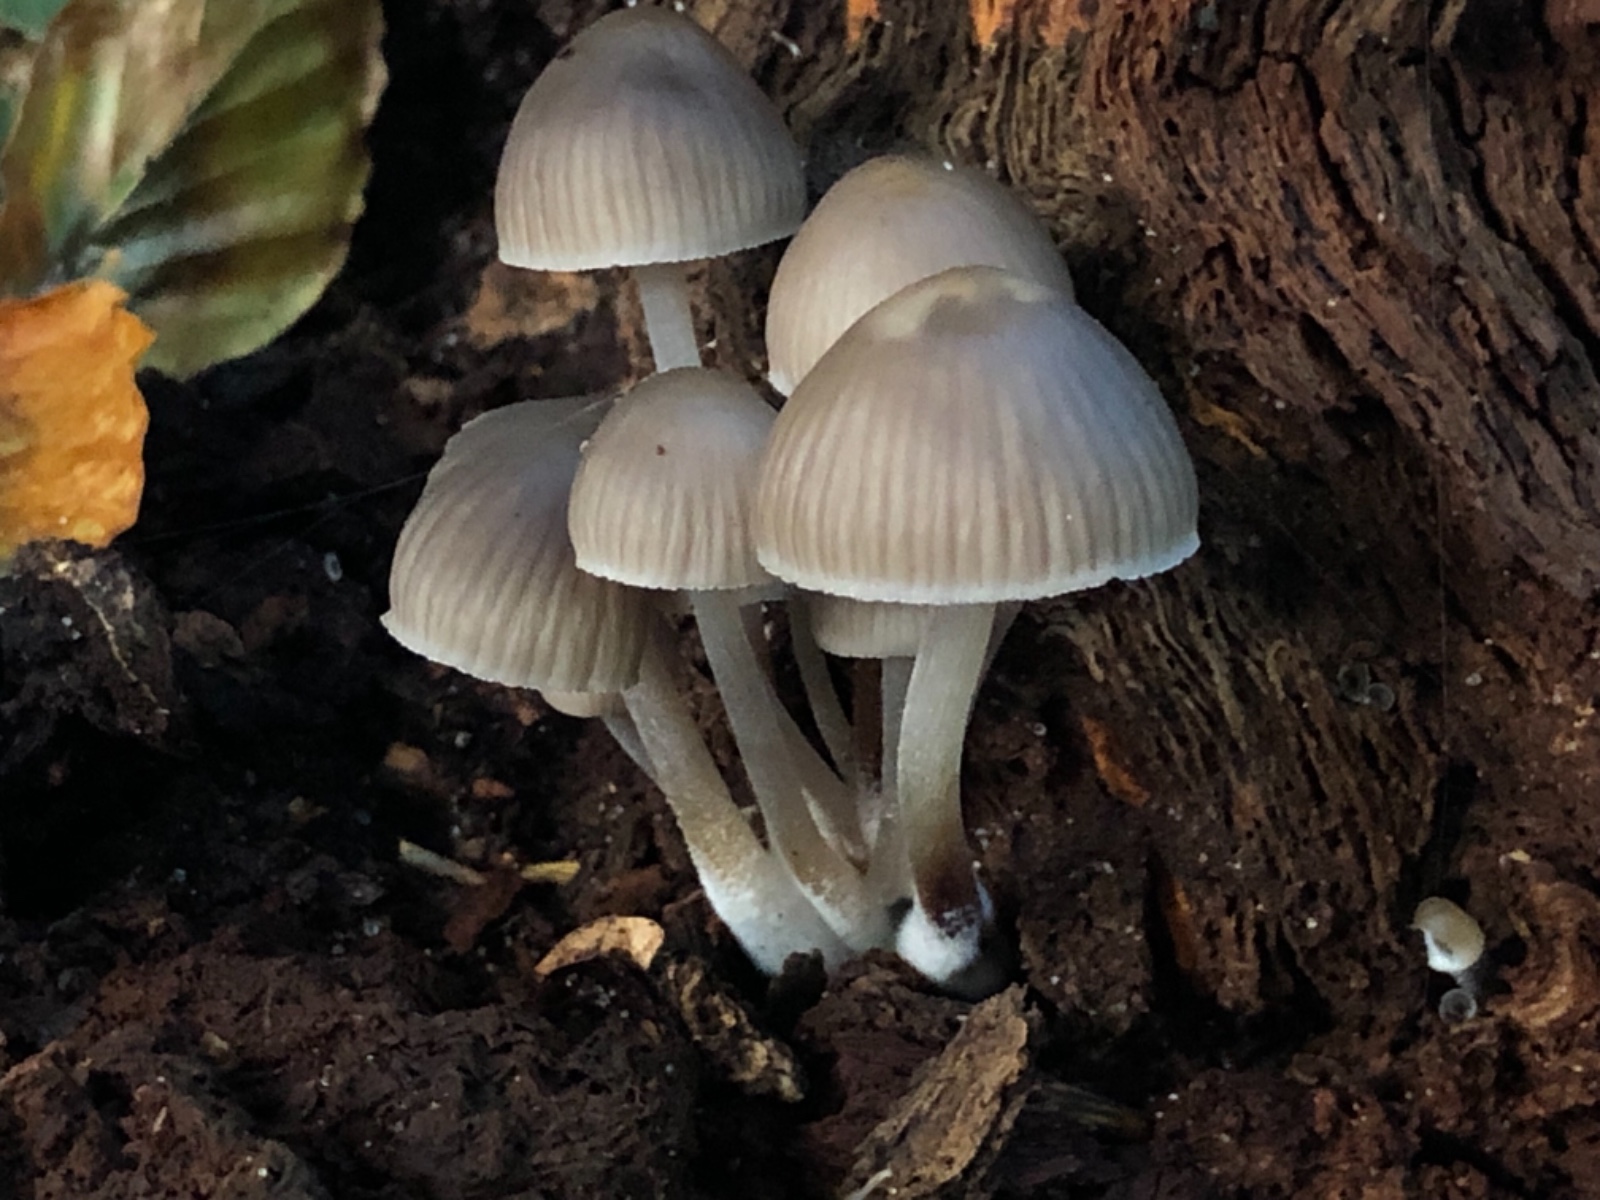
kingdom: Fungi
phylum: Basidiomycota
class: Agaricomycetes
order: Agaricales
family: Mycenaceae
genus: Mycena
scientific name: Mycena inclinata
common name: nikkende huesvamp
